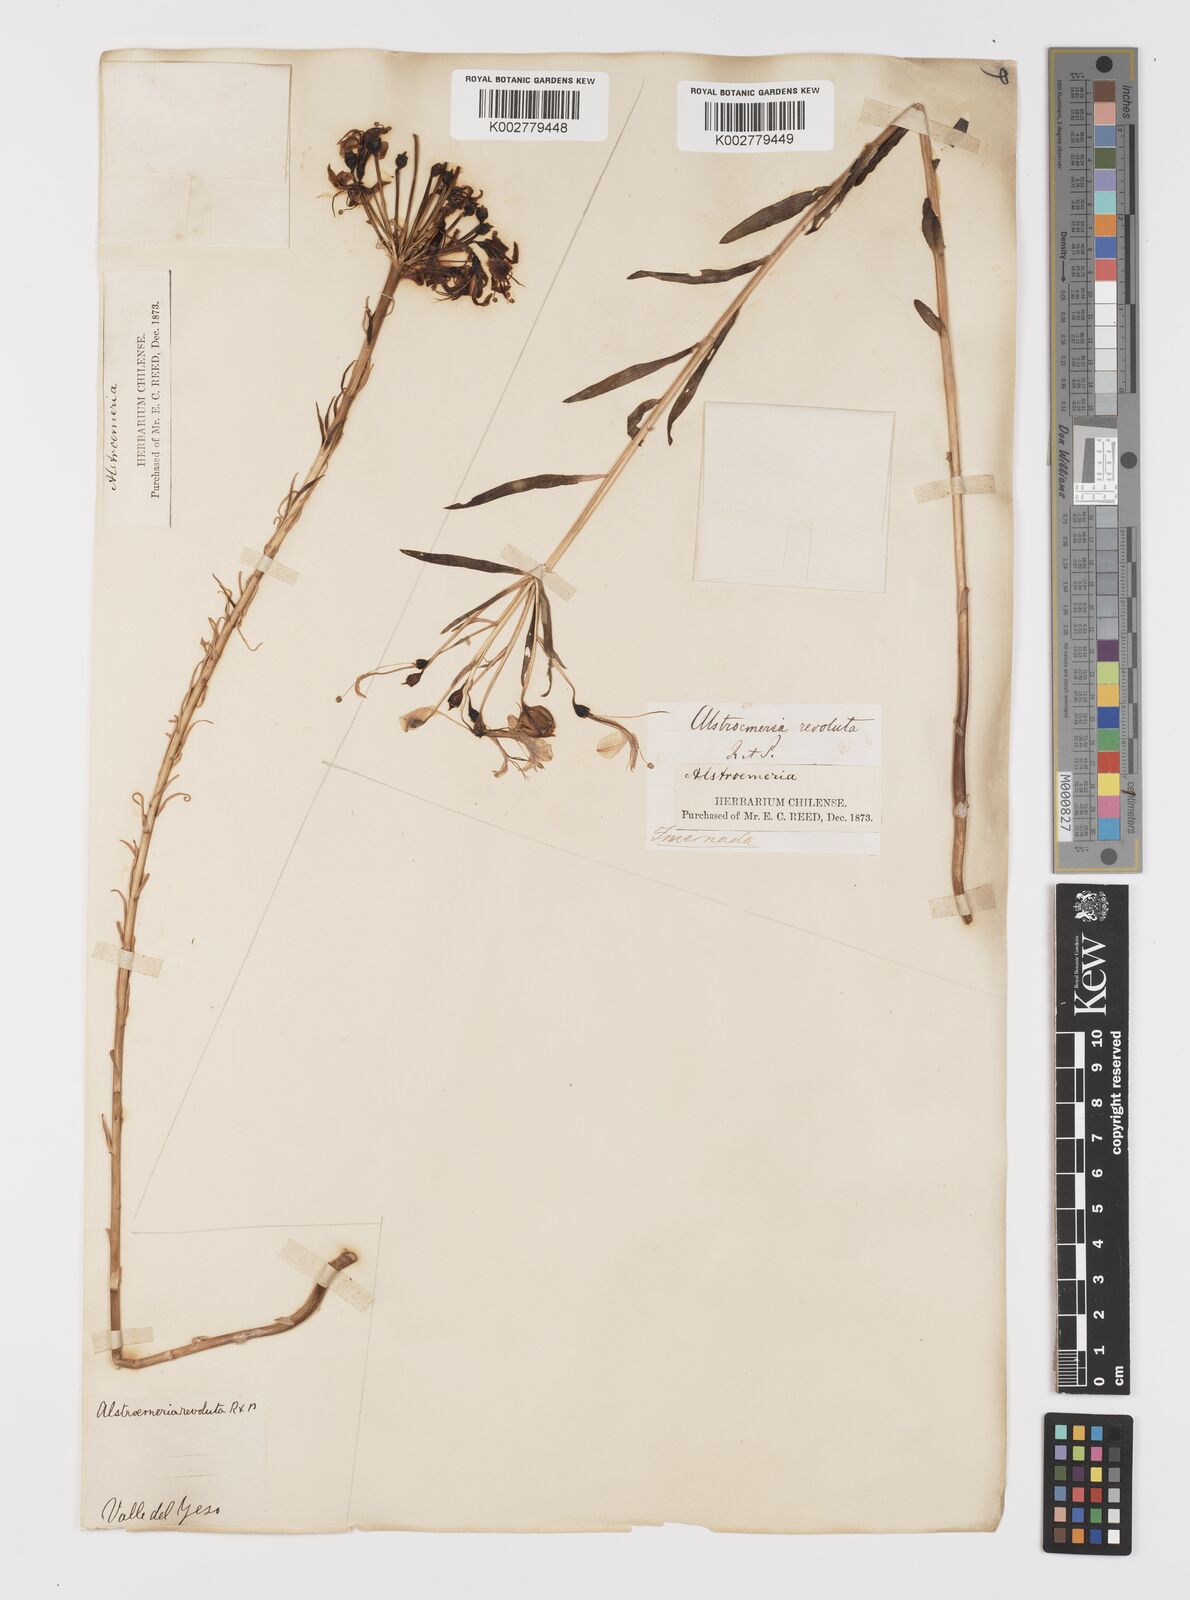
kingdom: Plantae
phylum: Tracheophyta
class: Liliopsida
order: Liliales
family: Alstroemeriaceae
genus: Alstroemeria
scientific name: Alstroemeria revoluta
